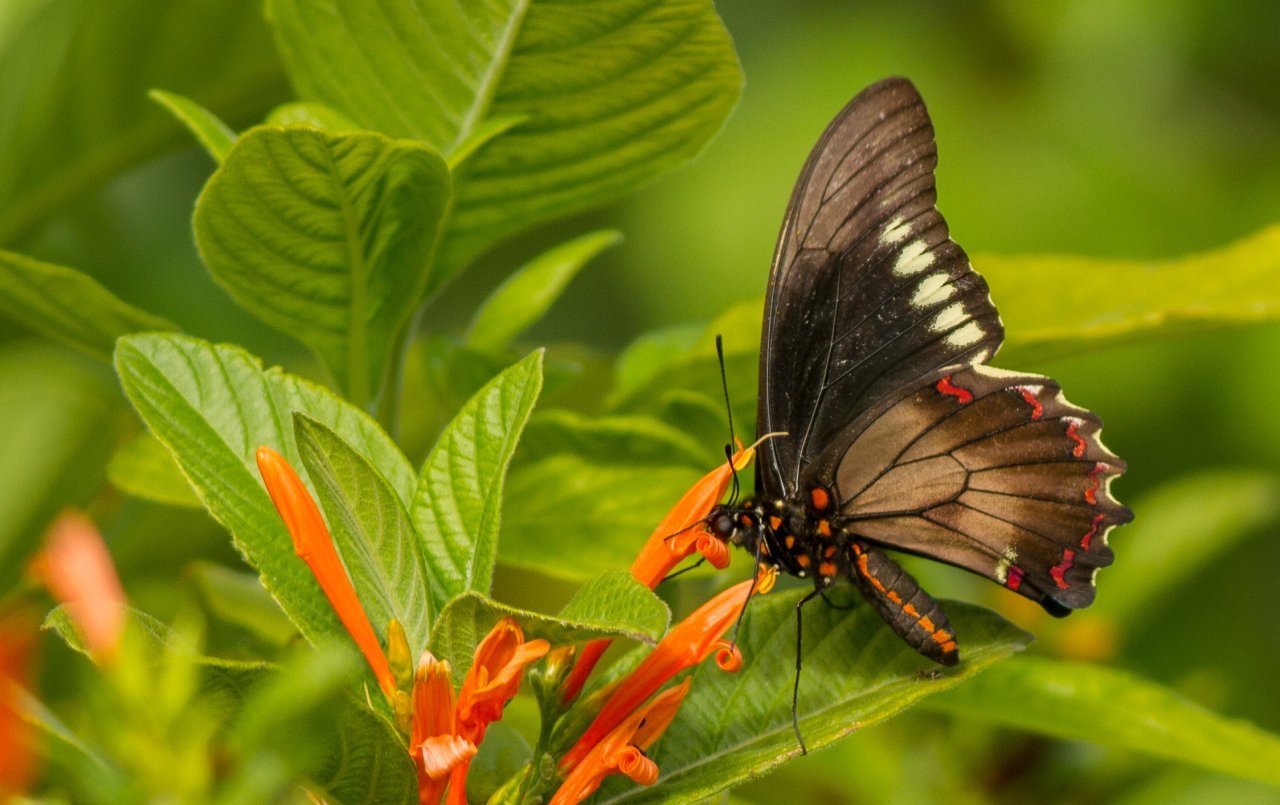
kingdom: Animalia
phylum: Arthropoda
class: Insecta
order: Lepidoptera
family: Papilionidae
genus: Battus
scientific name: Battus polydamas
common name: Polydamas Swallowtail
